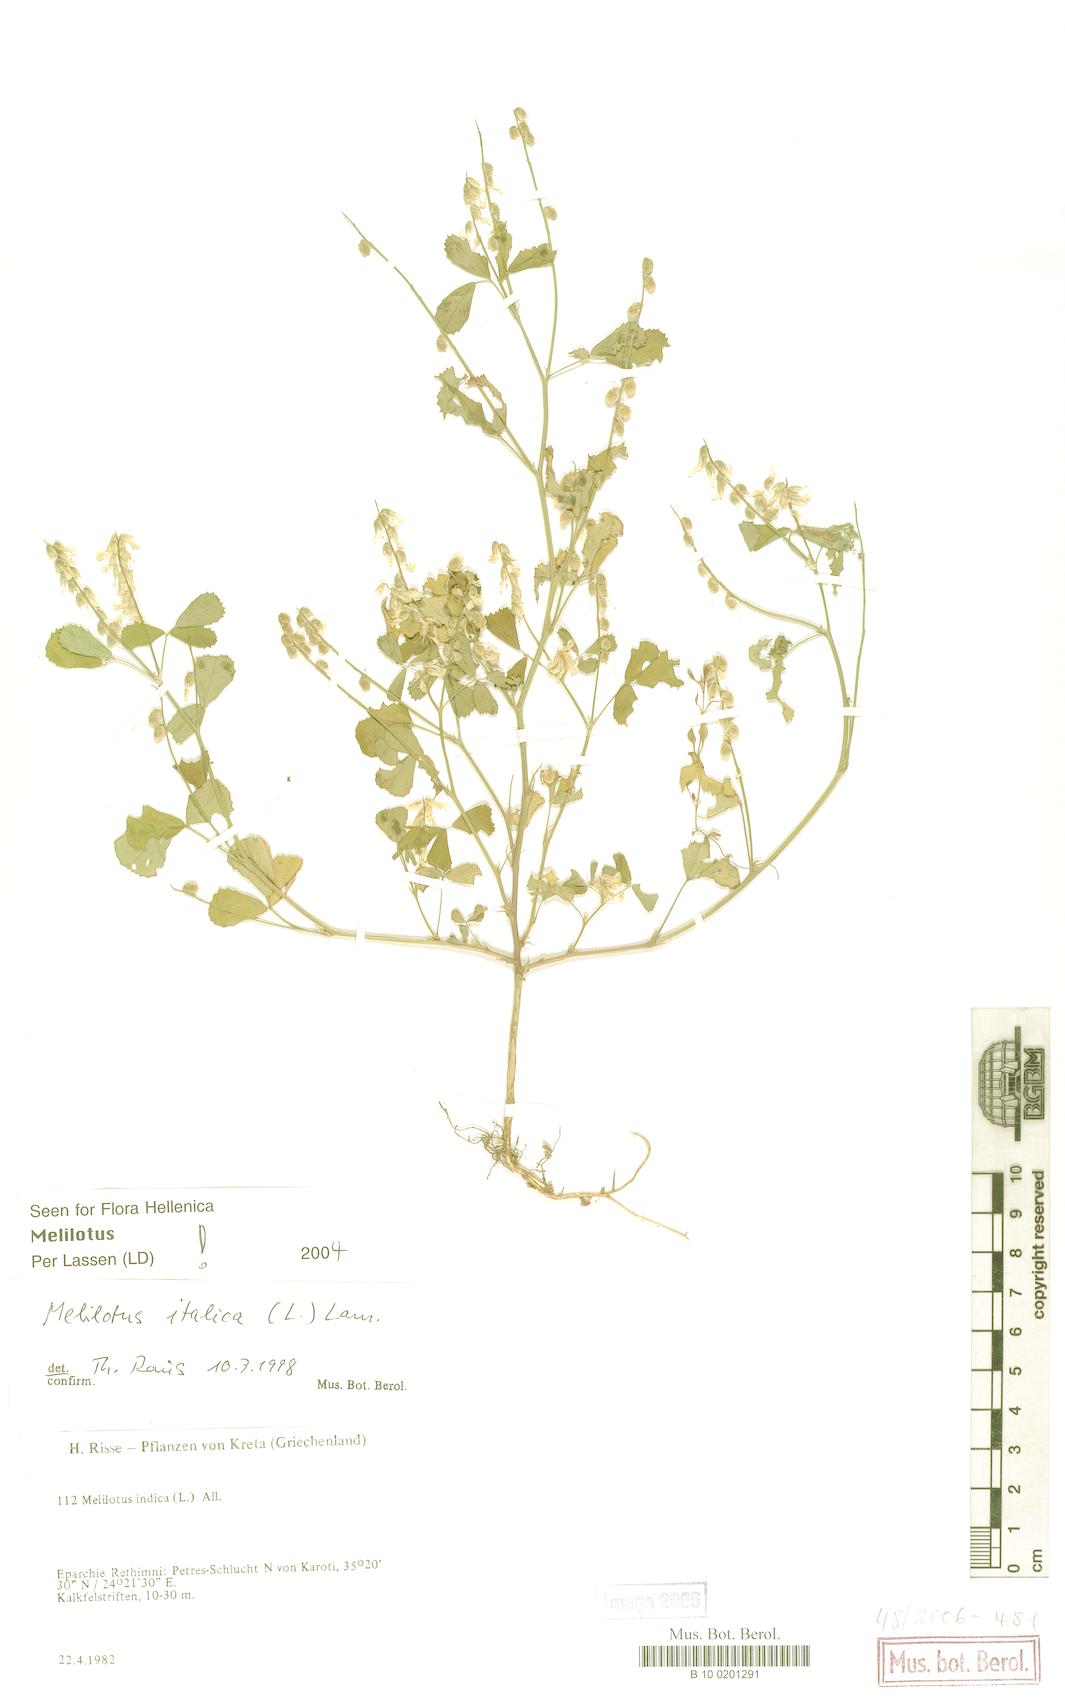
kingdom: Plantae
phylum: Tracheophyta
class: Magnoliopsida
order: Fabales
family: Fabaceae
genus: Melilotus
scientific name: Melilotus italicus
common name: Italian melilot
